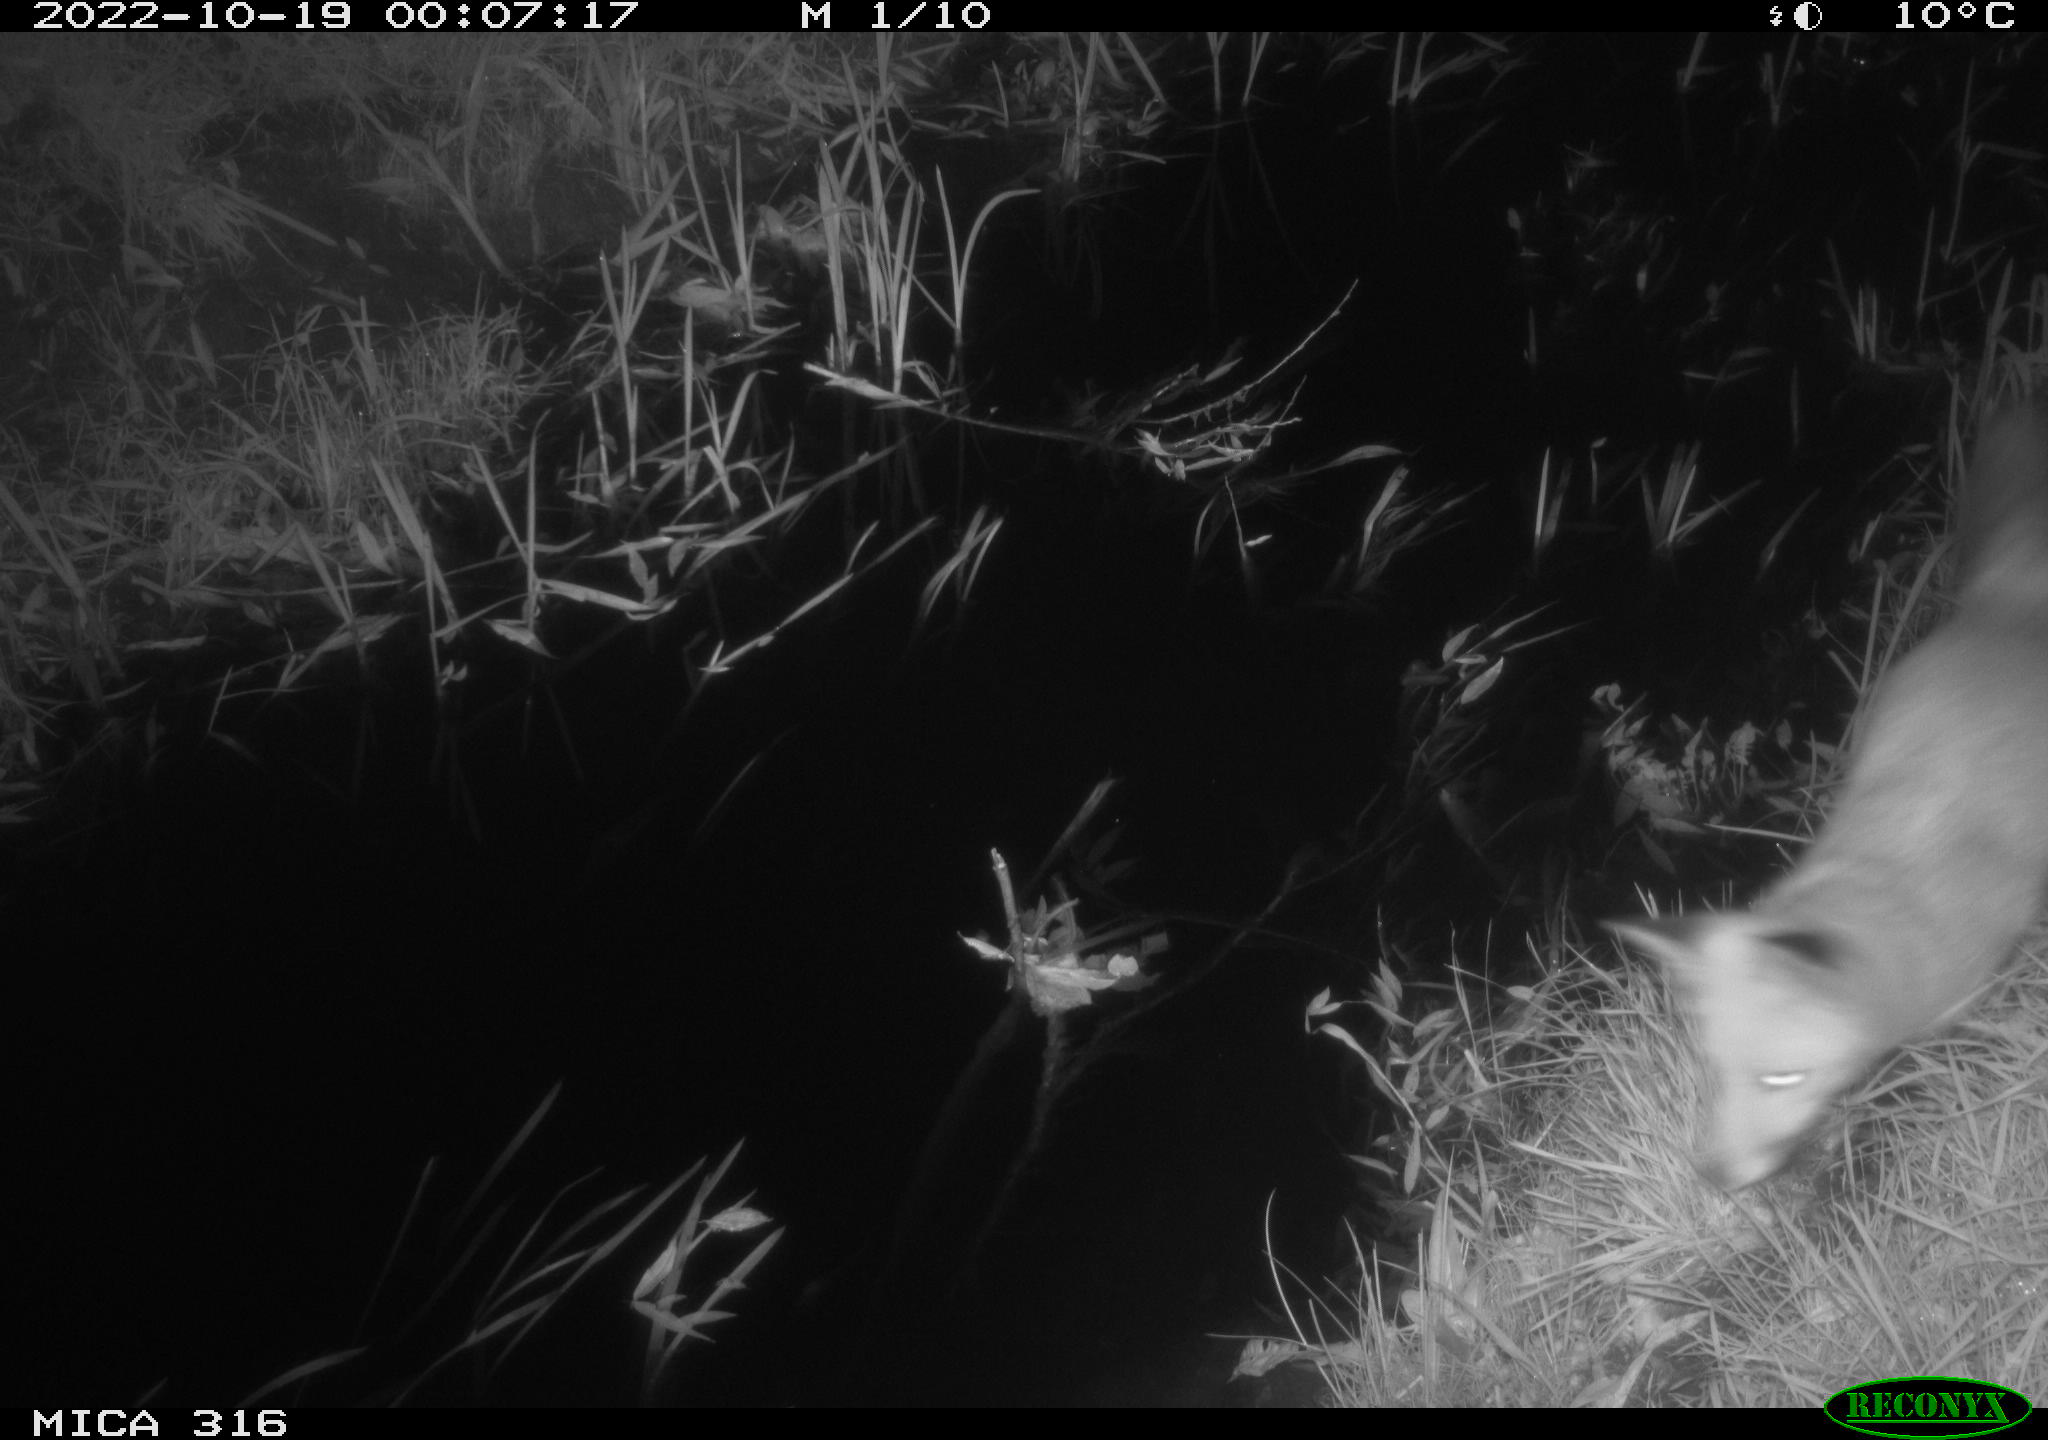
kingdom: Animalia
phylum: Chordata
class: Mammalia
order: Carnivora
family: Canidae
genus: Vulpes
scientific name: Vulpes vulpes
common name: Red fox
